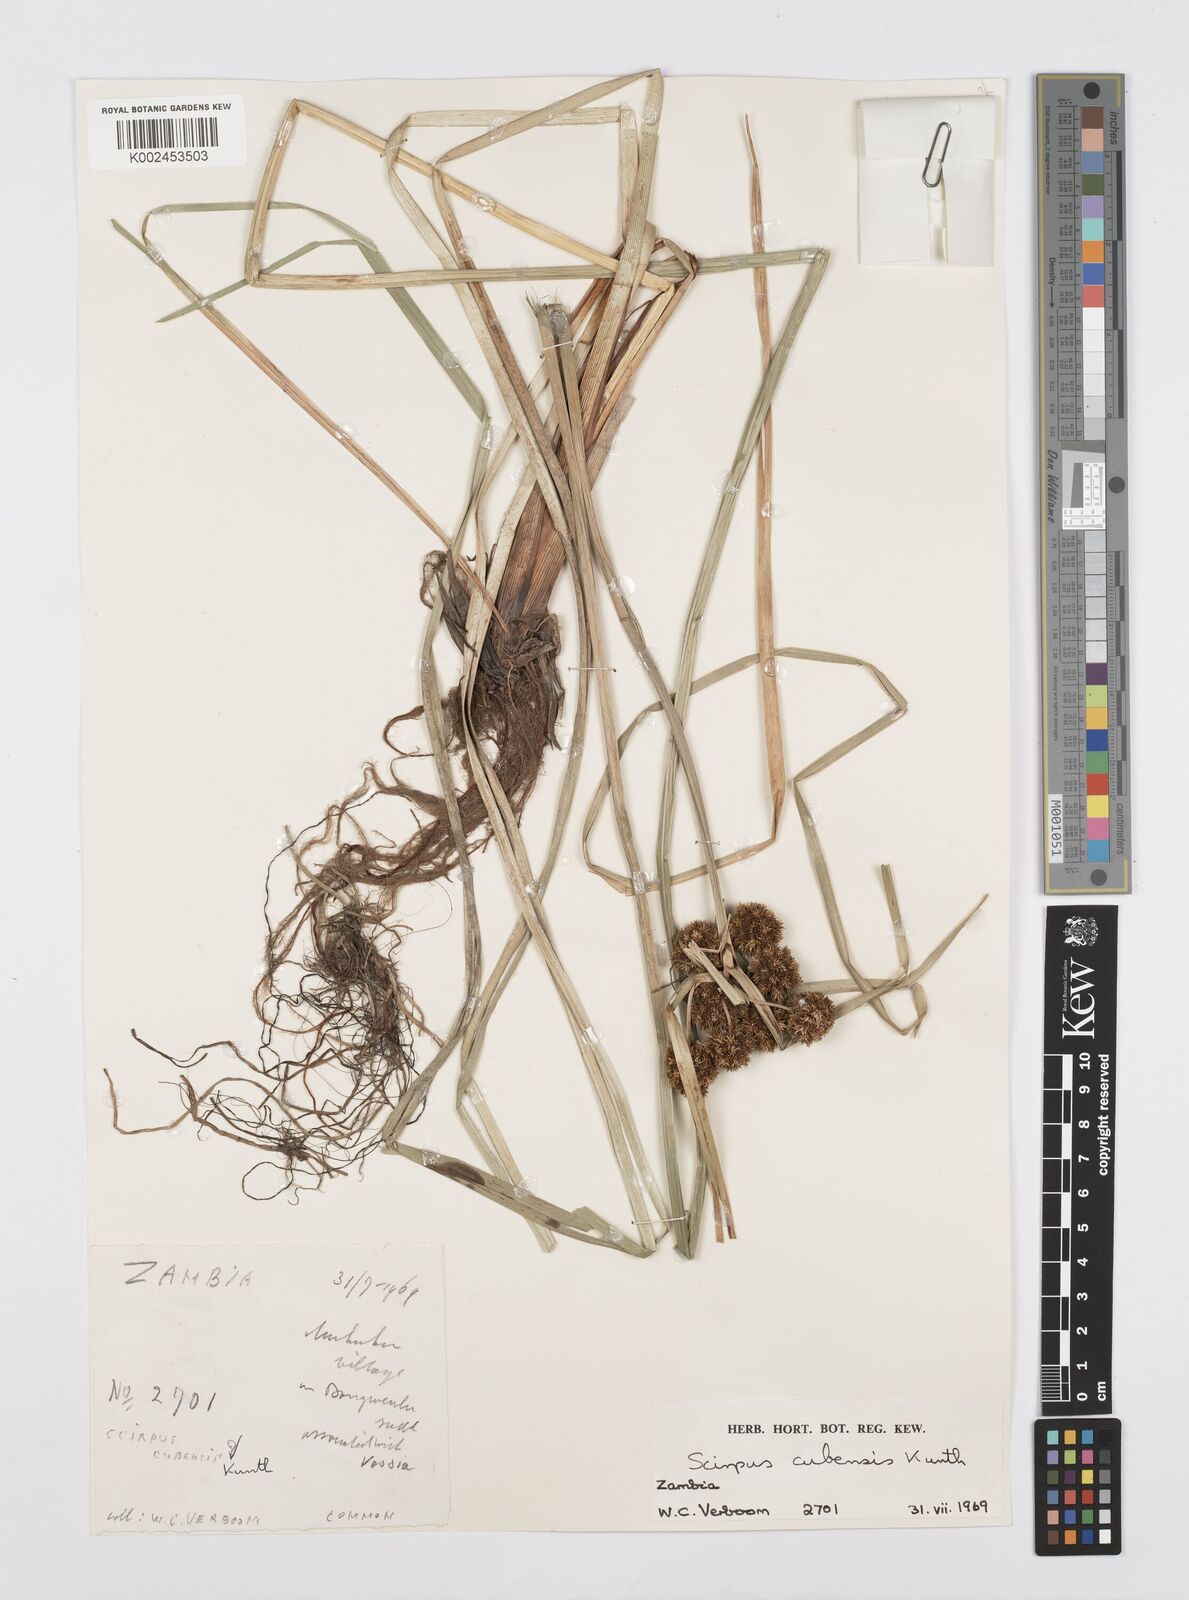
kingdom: Plantae
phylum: Tracheophyta
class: Liliopsida
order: Poales
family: Cyperaceae
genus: Cyperus
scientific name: Cyperus elegans
